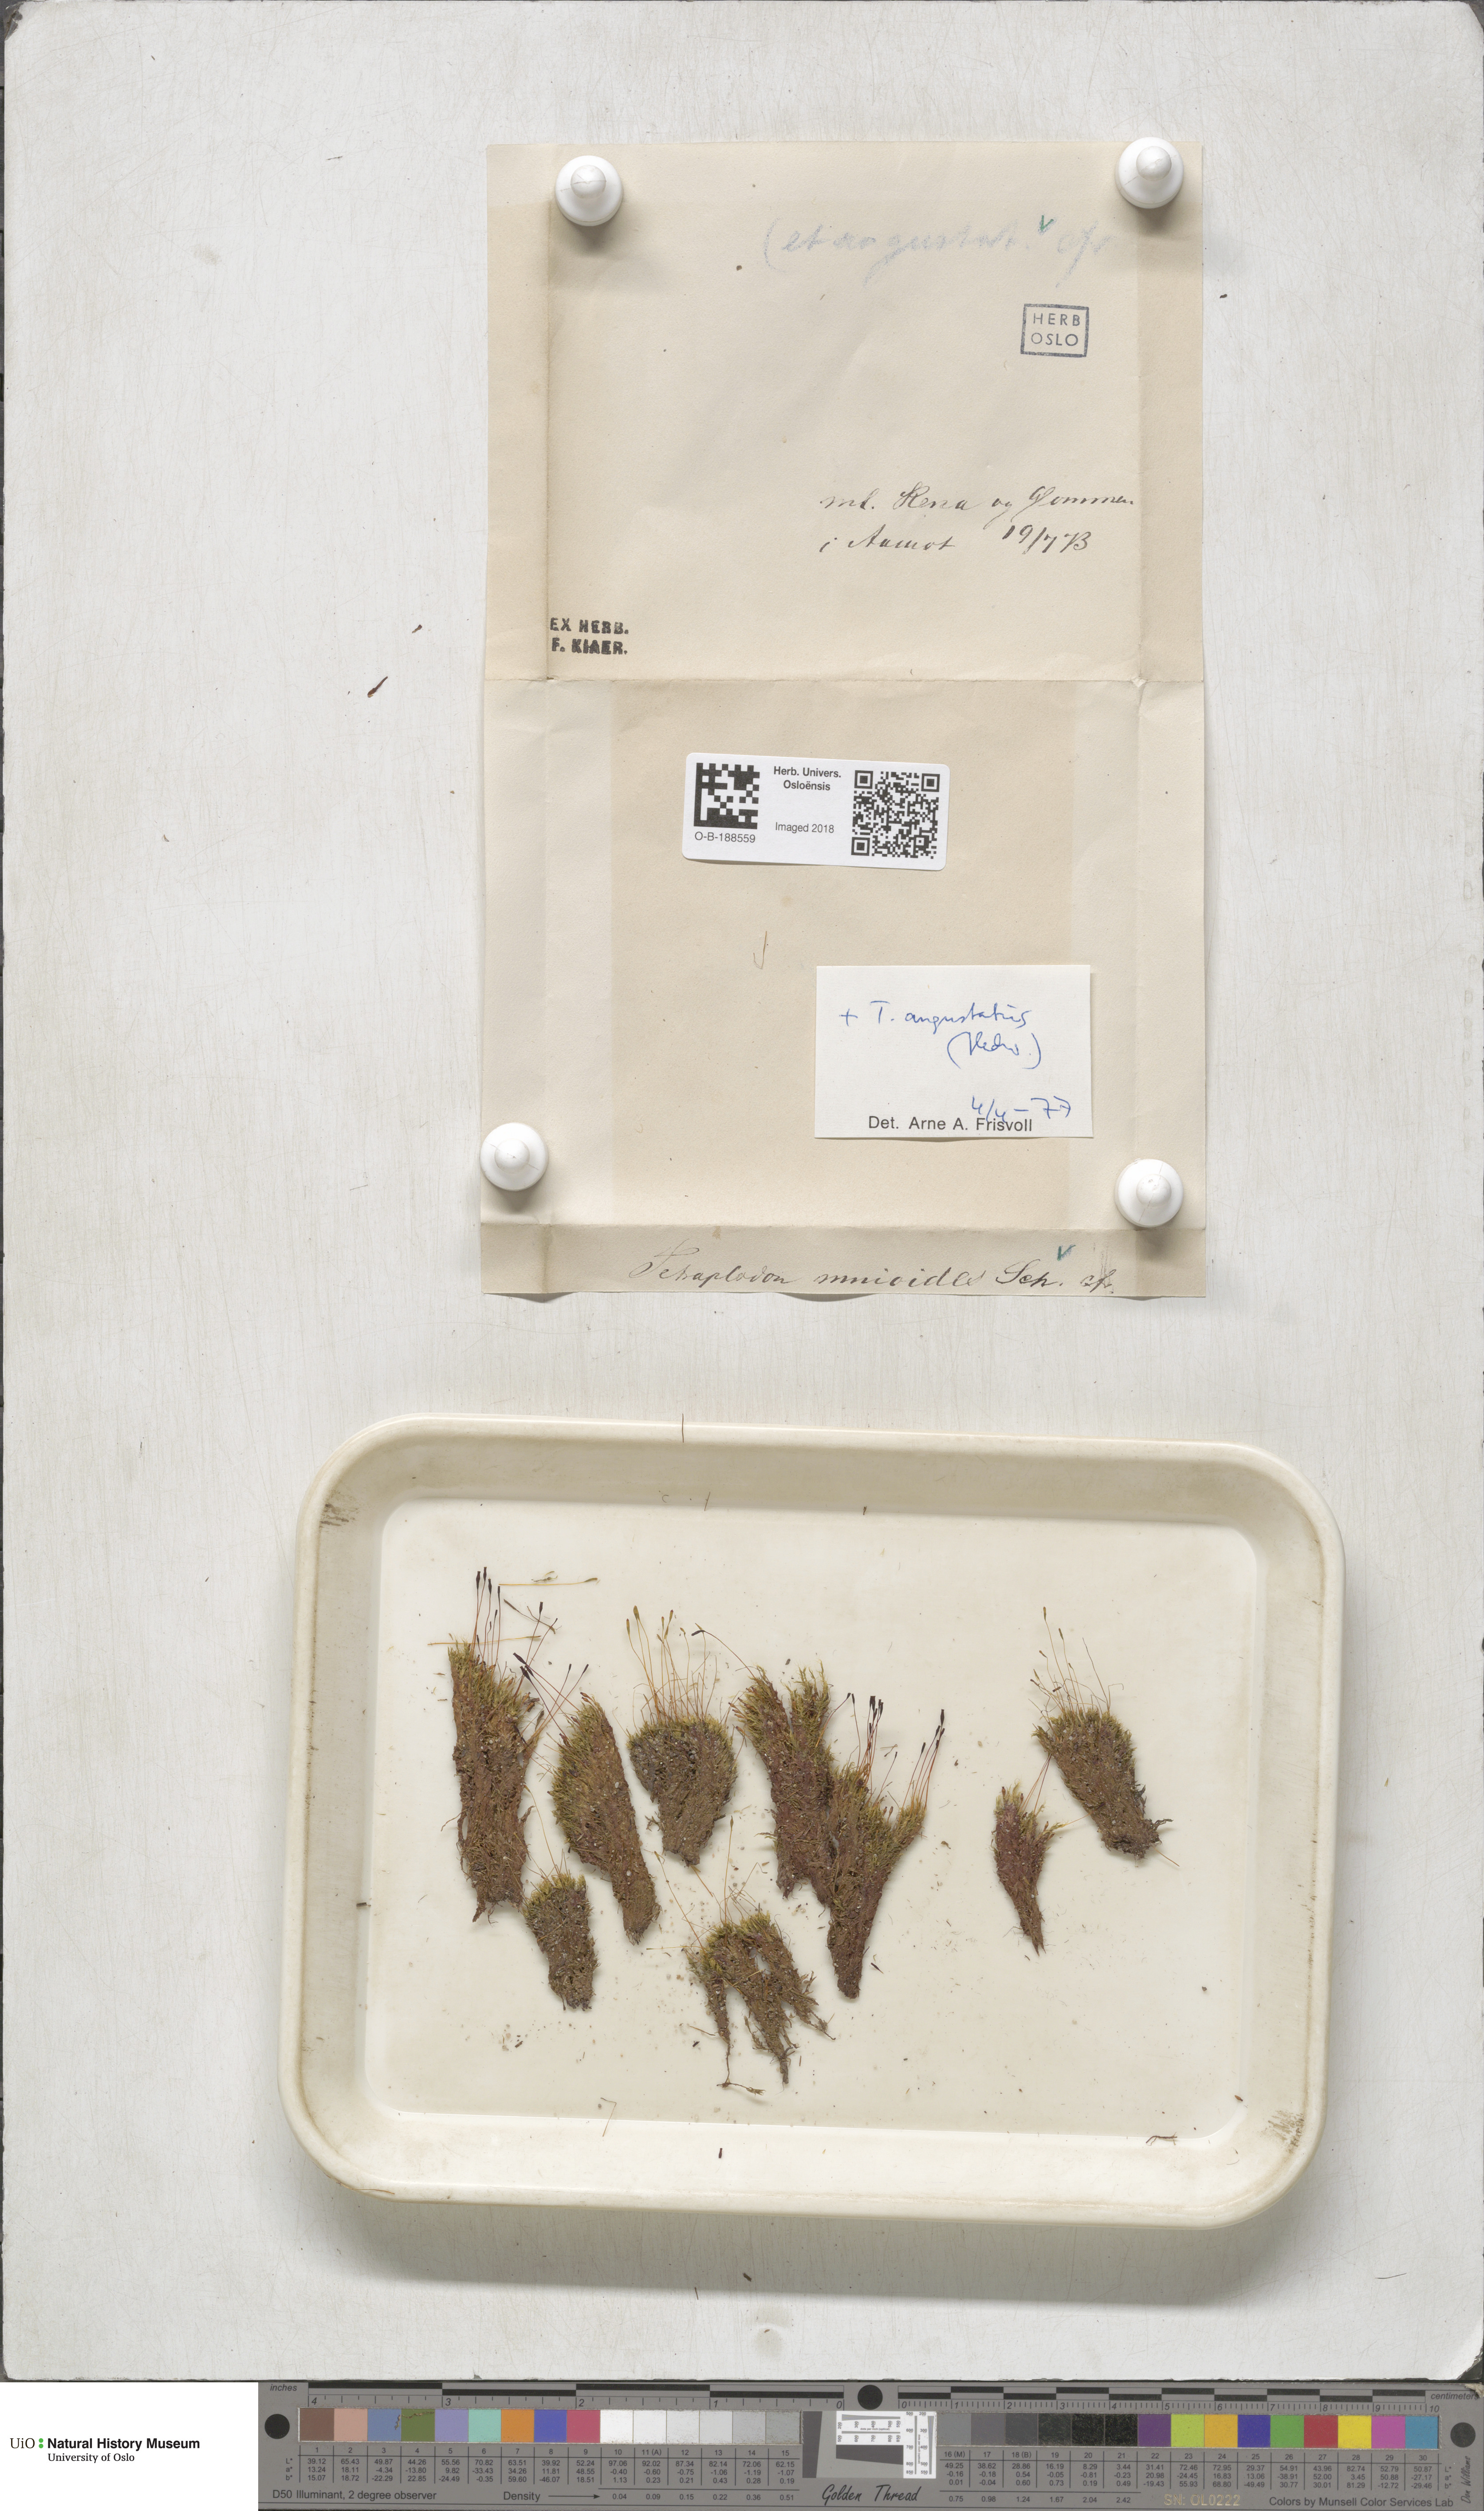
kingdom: Plantae
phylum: Bryophyta
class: Bryopsida
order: Splachnales
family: Splachnaceae
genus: Tetraplodon
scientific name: Tetraplodon mnioides
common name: Entire-leaved nitrogen moss
